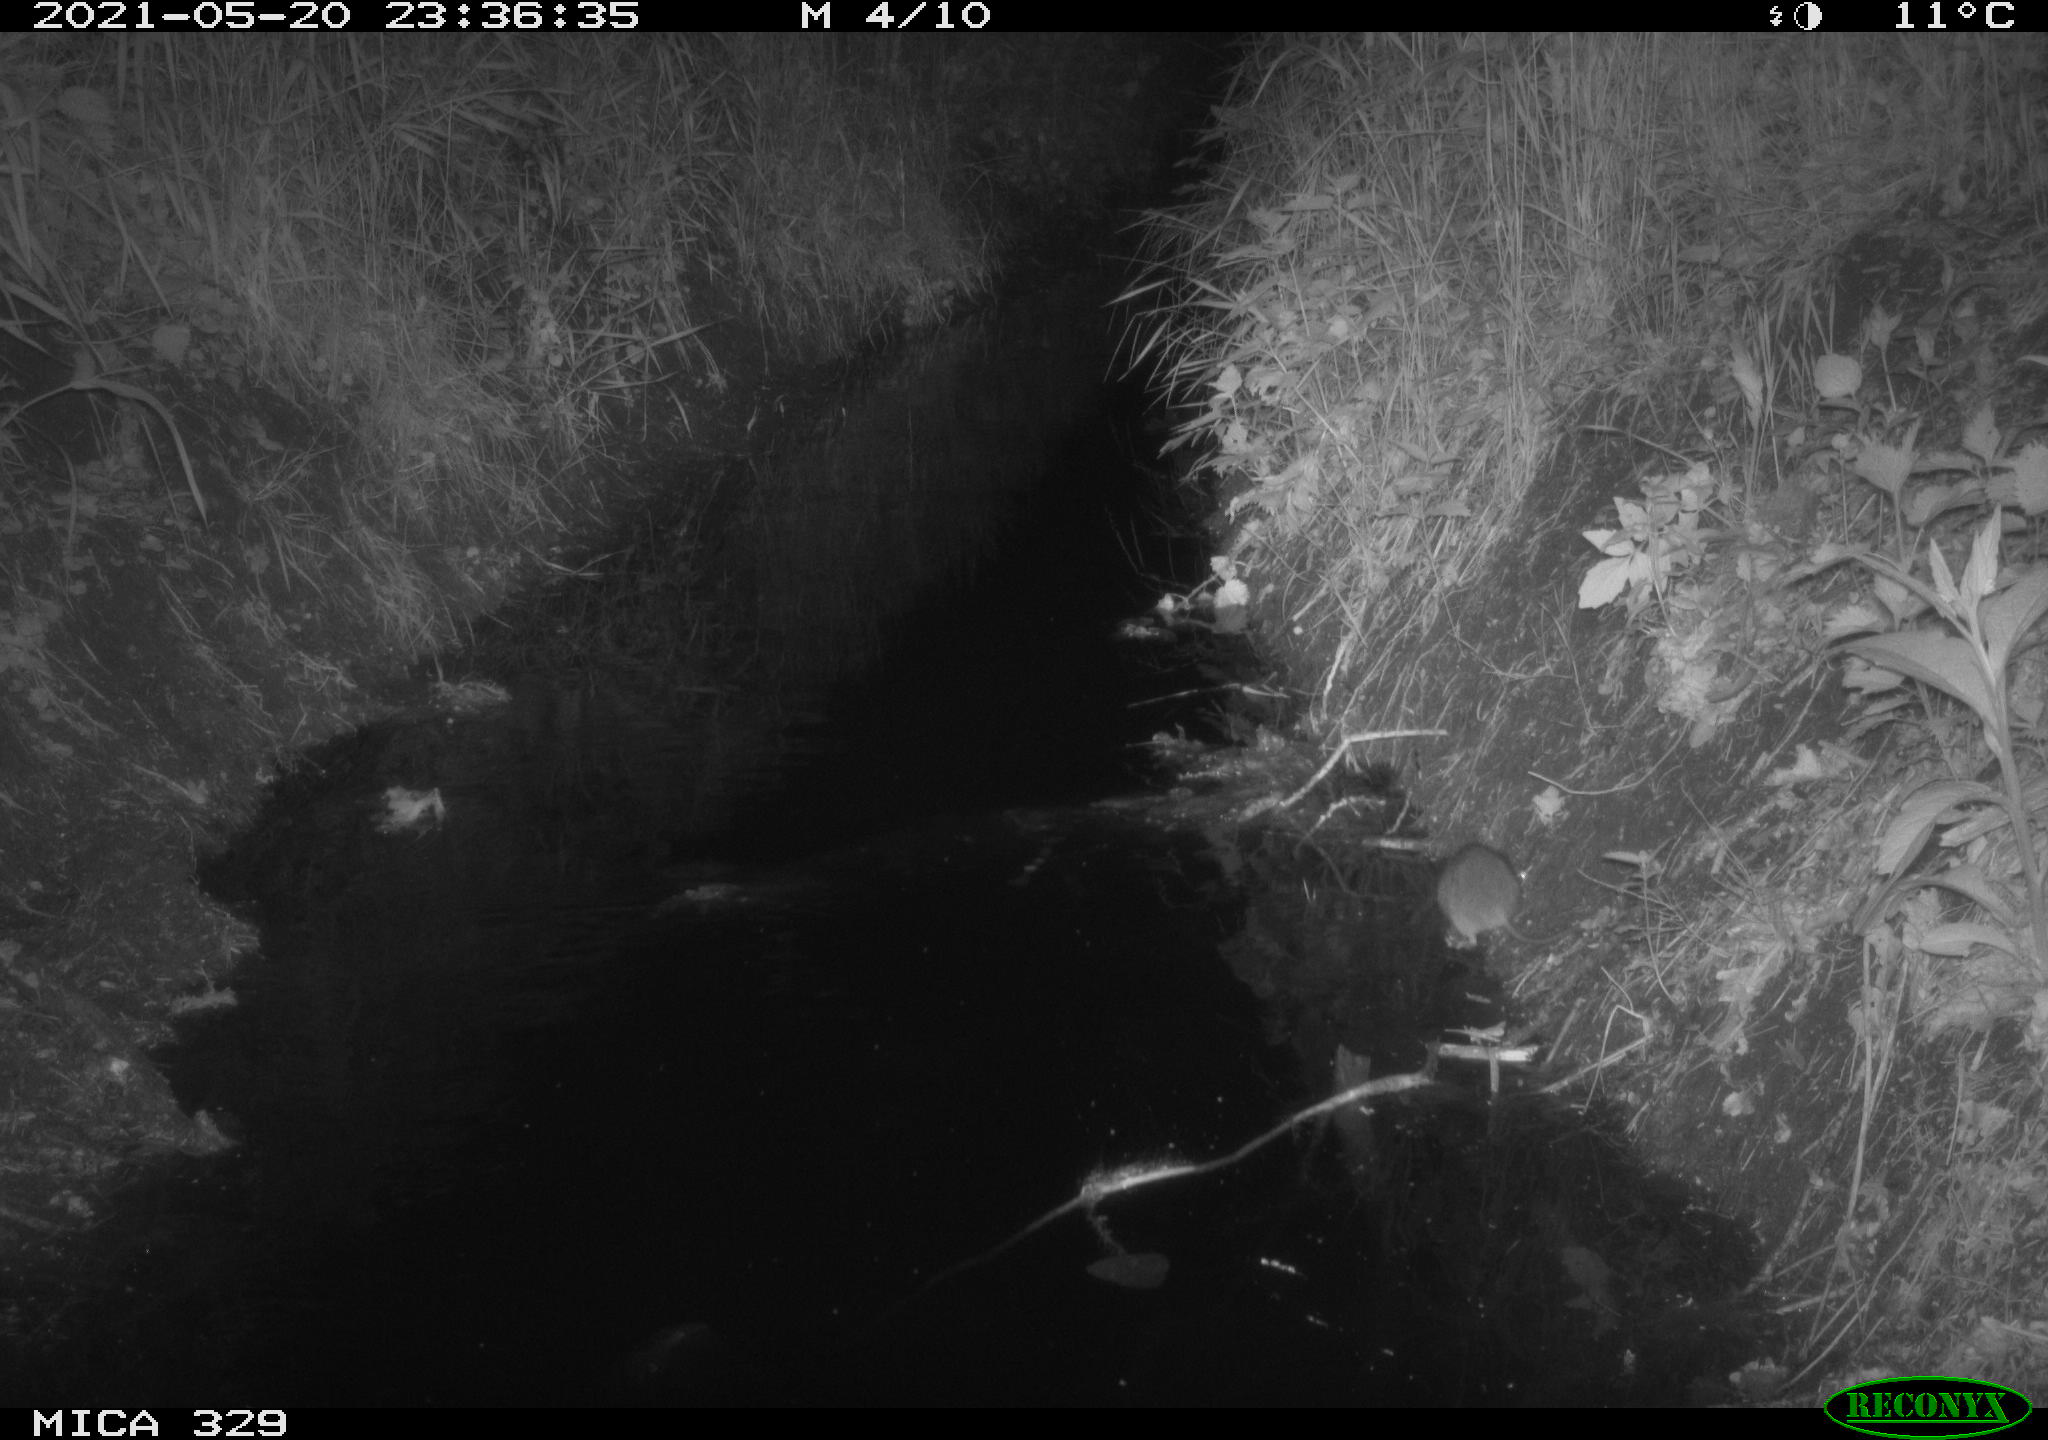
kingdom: Animalia
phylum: Chordata
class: Mammalia
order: Rodentia
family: Muridae
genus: Rattus
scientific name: Rattus norvegicus
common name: Brown rat
